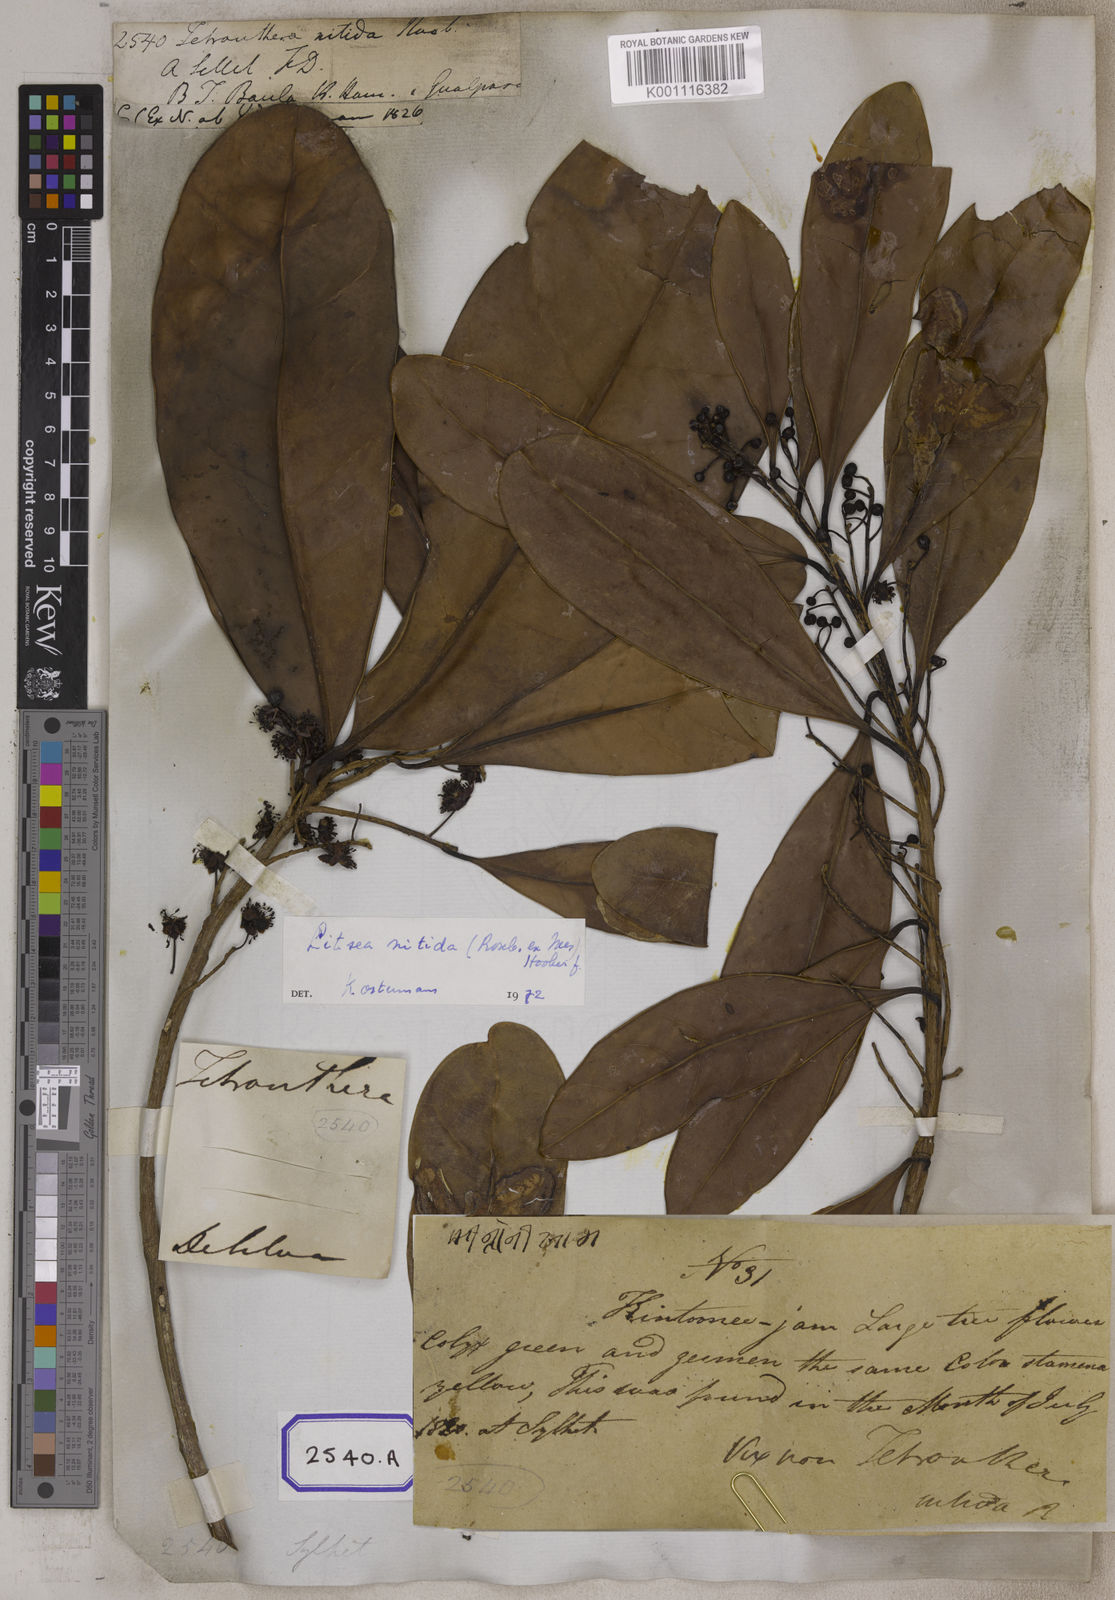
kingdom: Plantae
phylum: Tracheophyta
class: Magnoliopsida
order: Laurales
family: Lauraceae
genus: Litsea
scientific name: Litsea
